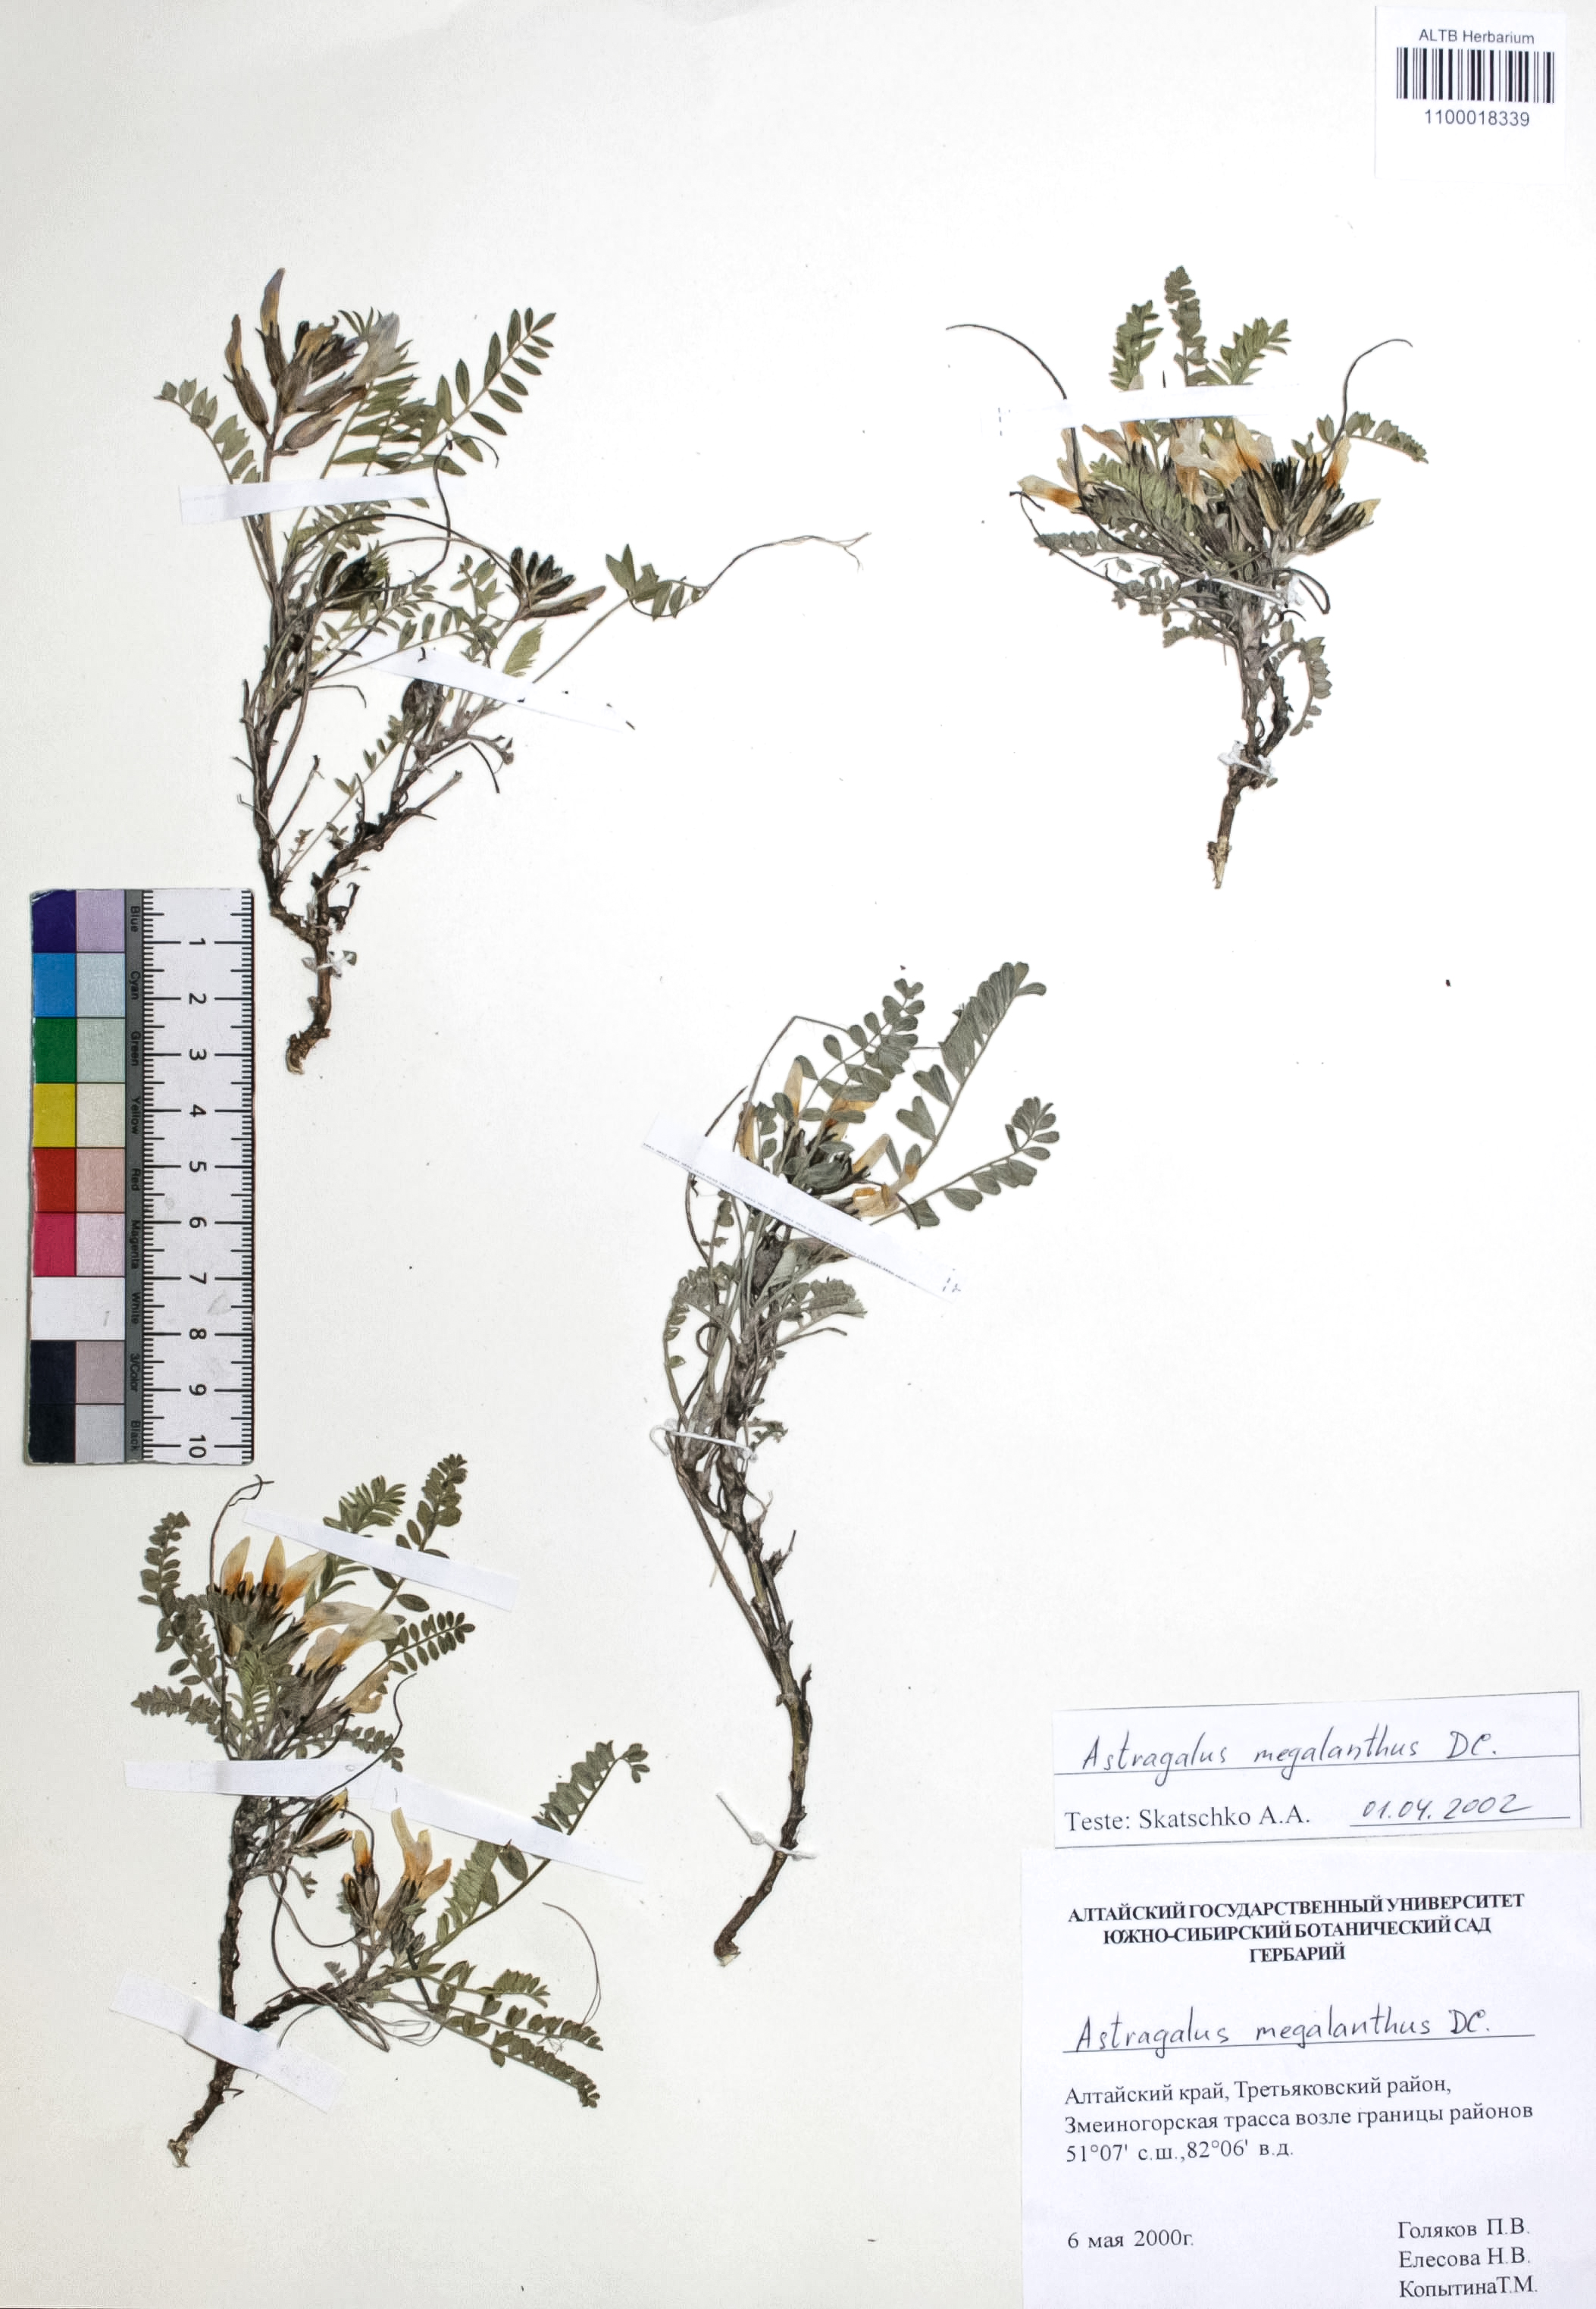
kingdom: Plantae
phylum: Tracheophyta
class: Magnoliopsida
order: Fabales
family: Fabaceae
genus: Astragalus
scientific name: Astragalus leptostachys
